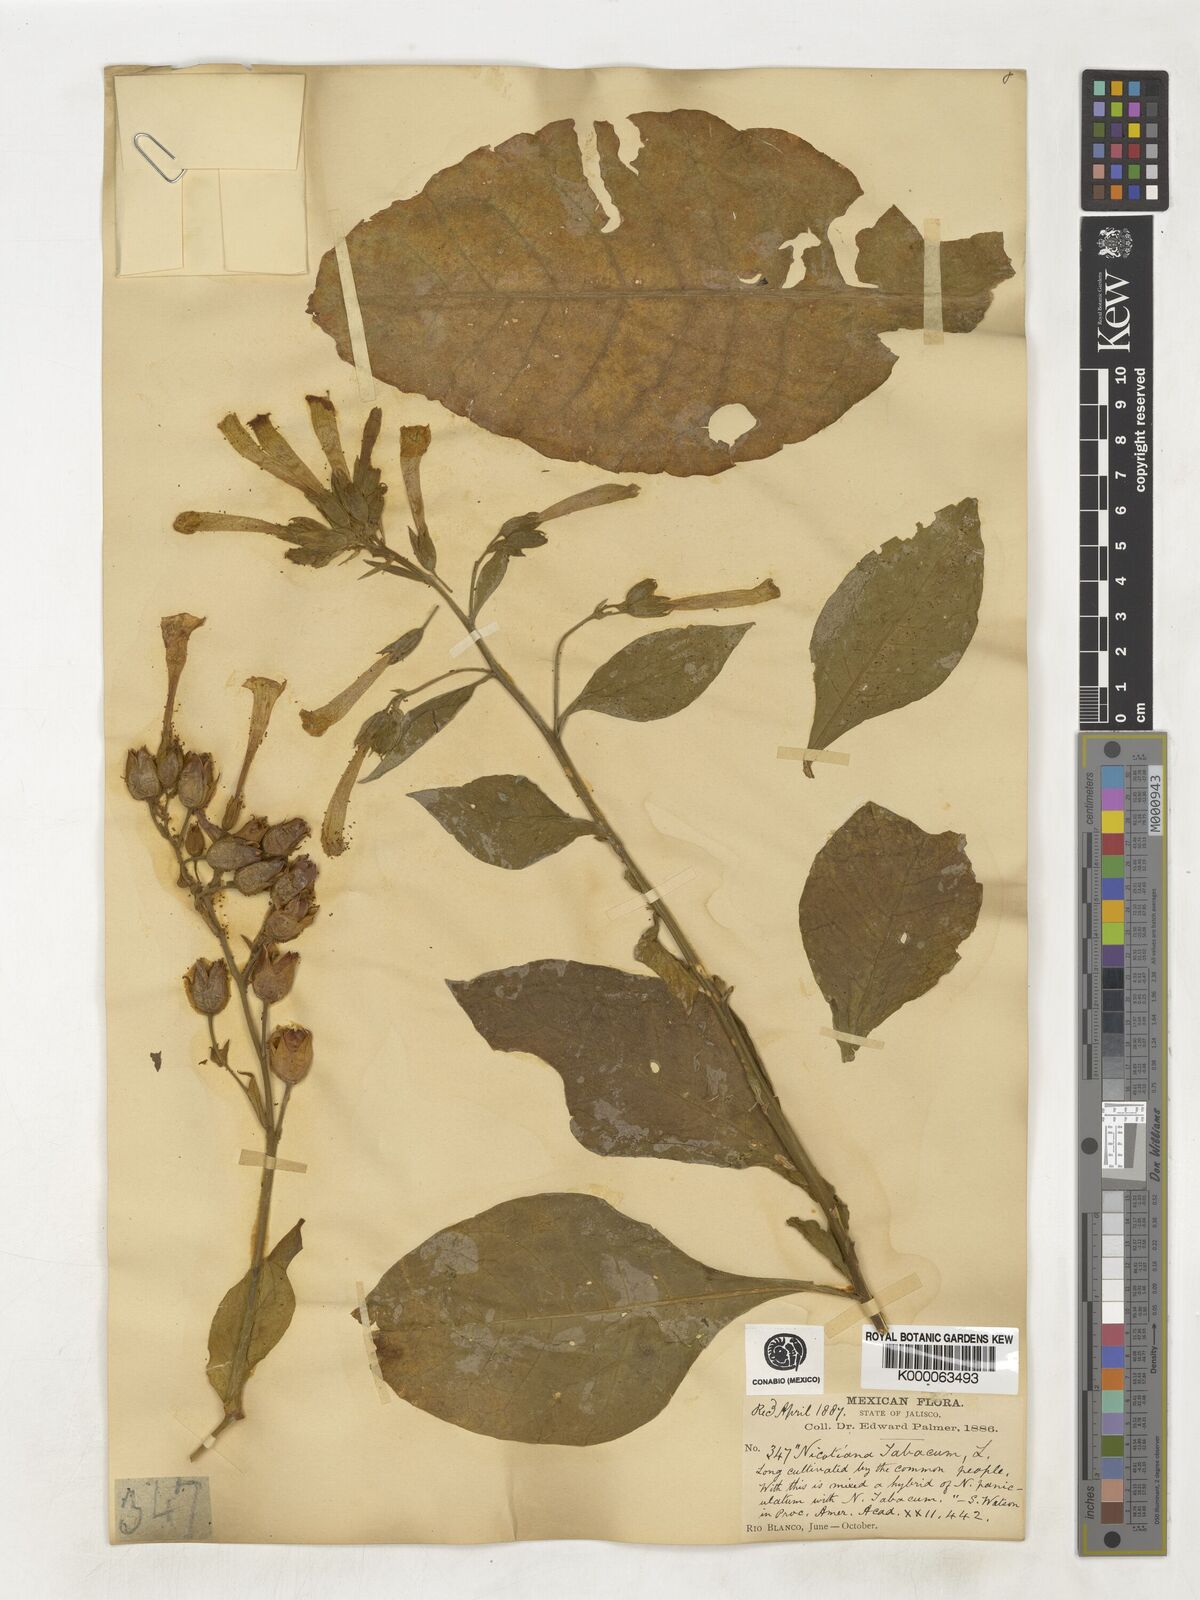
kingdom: Plantae
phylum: Tracheophyta
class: Magnoliopsida
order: Solanales
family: Solanaceae
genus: Nicotiana
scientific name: Nicotiana tabacum
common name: Tobacco
